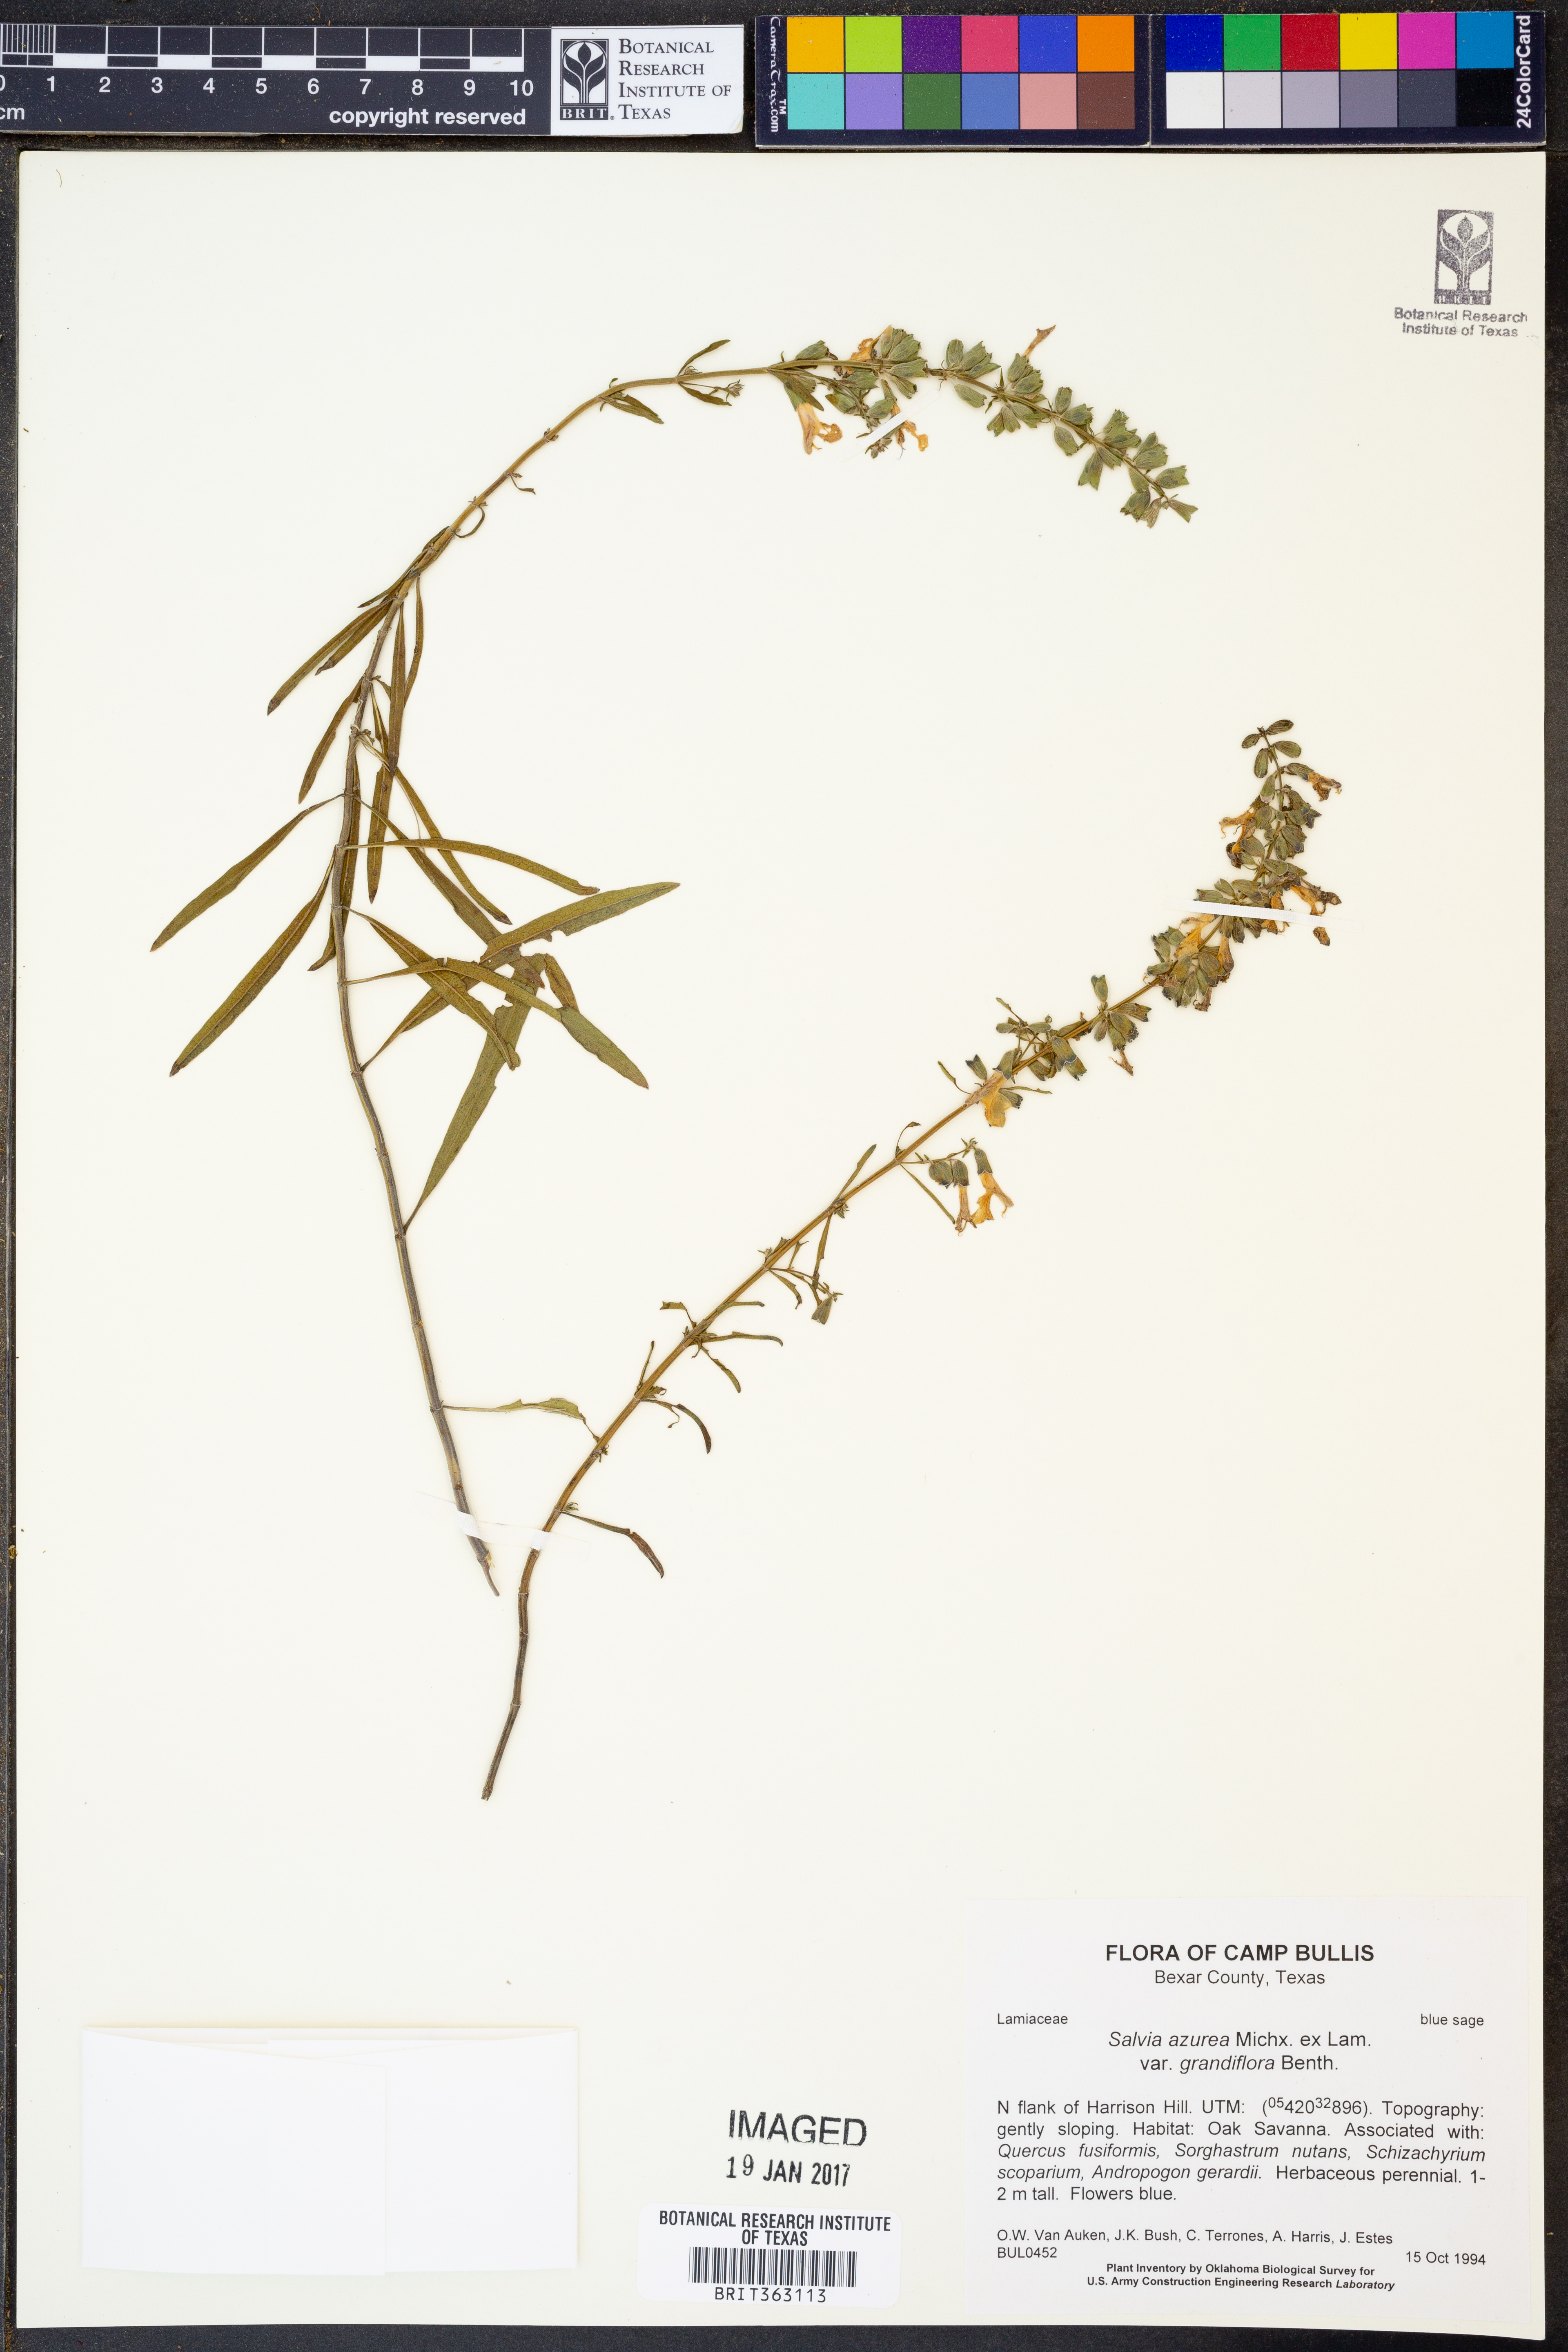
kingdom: Plantae
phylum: Tracheophyta
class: Magnoliopsida
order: Lamiales
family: Lamiaceae
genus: Salvia
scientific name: Salvia azurea
